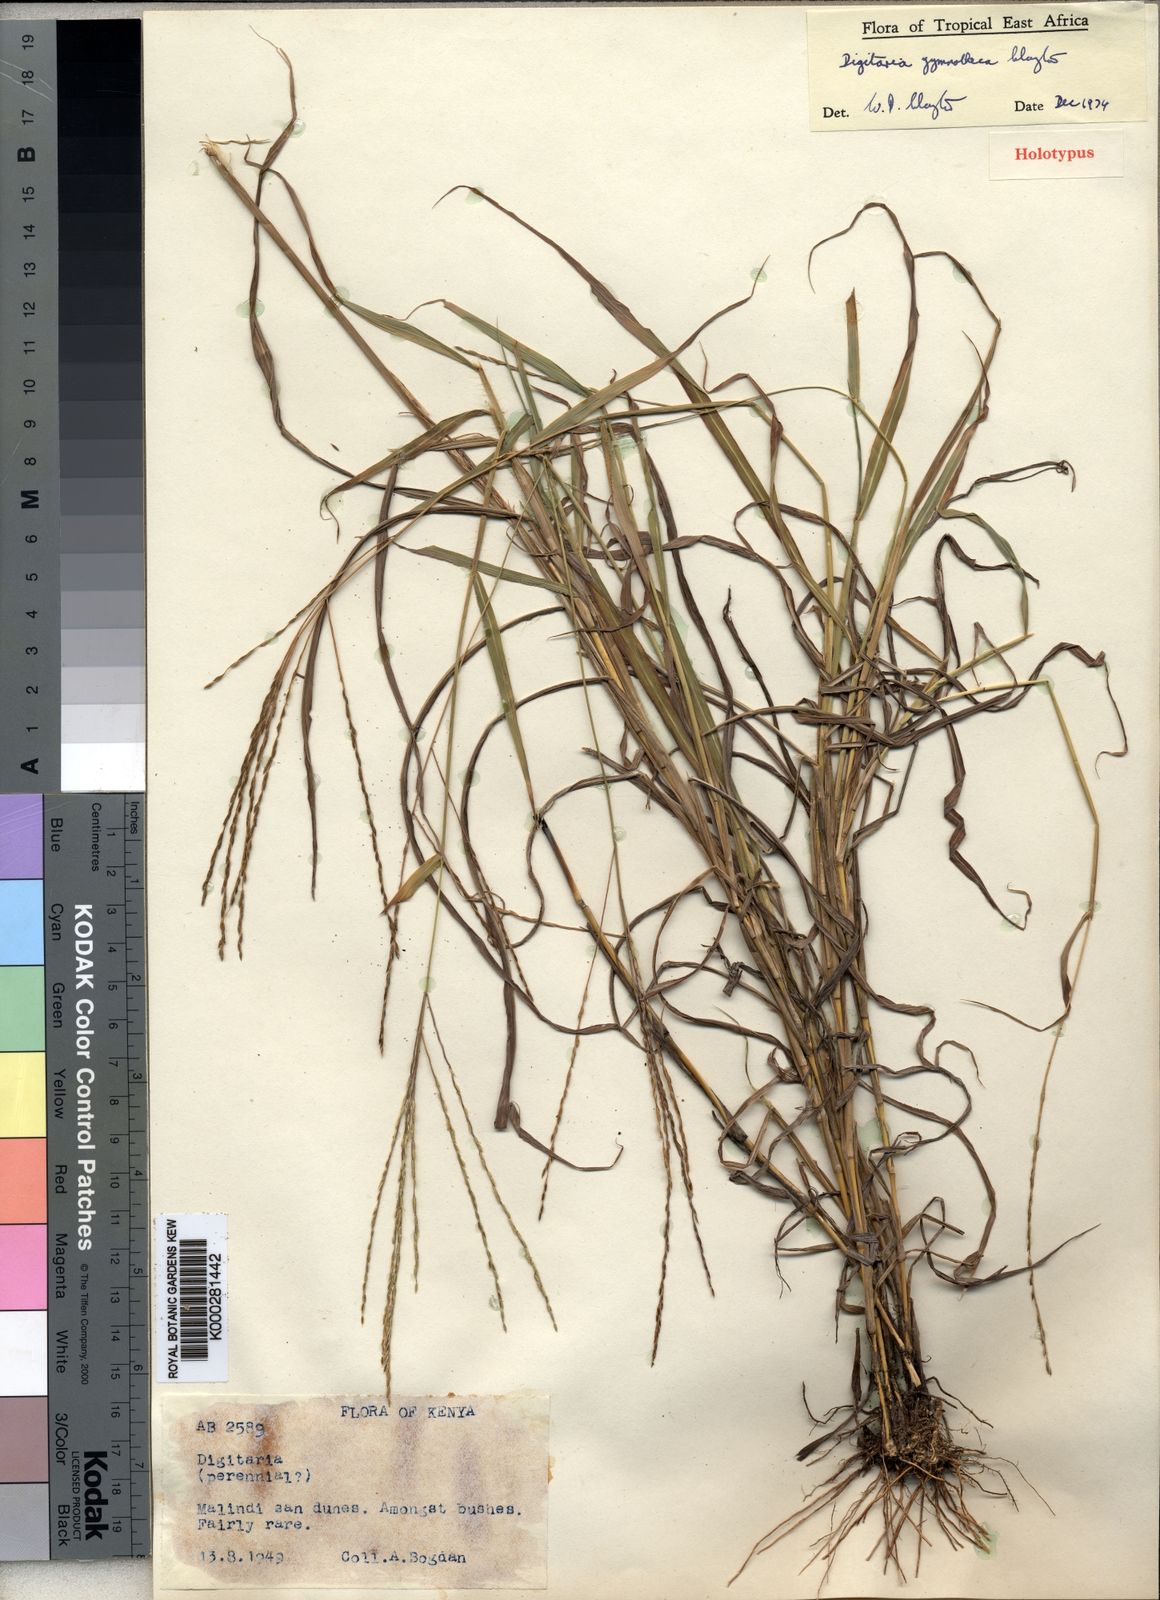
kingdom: Plantae
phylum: Tracheophyta
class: Liliopsida
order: Poales
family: Poaceae
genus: Digitaria
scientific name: Digitaria gymnotheca
